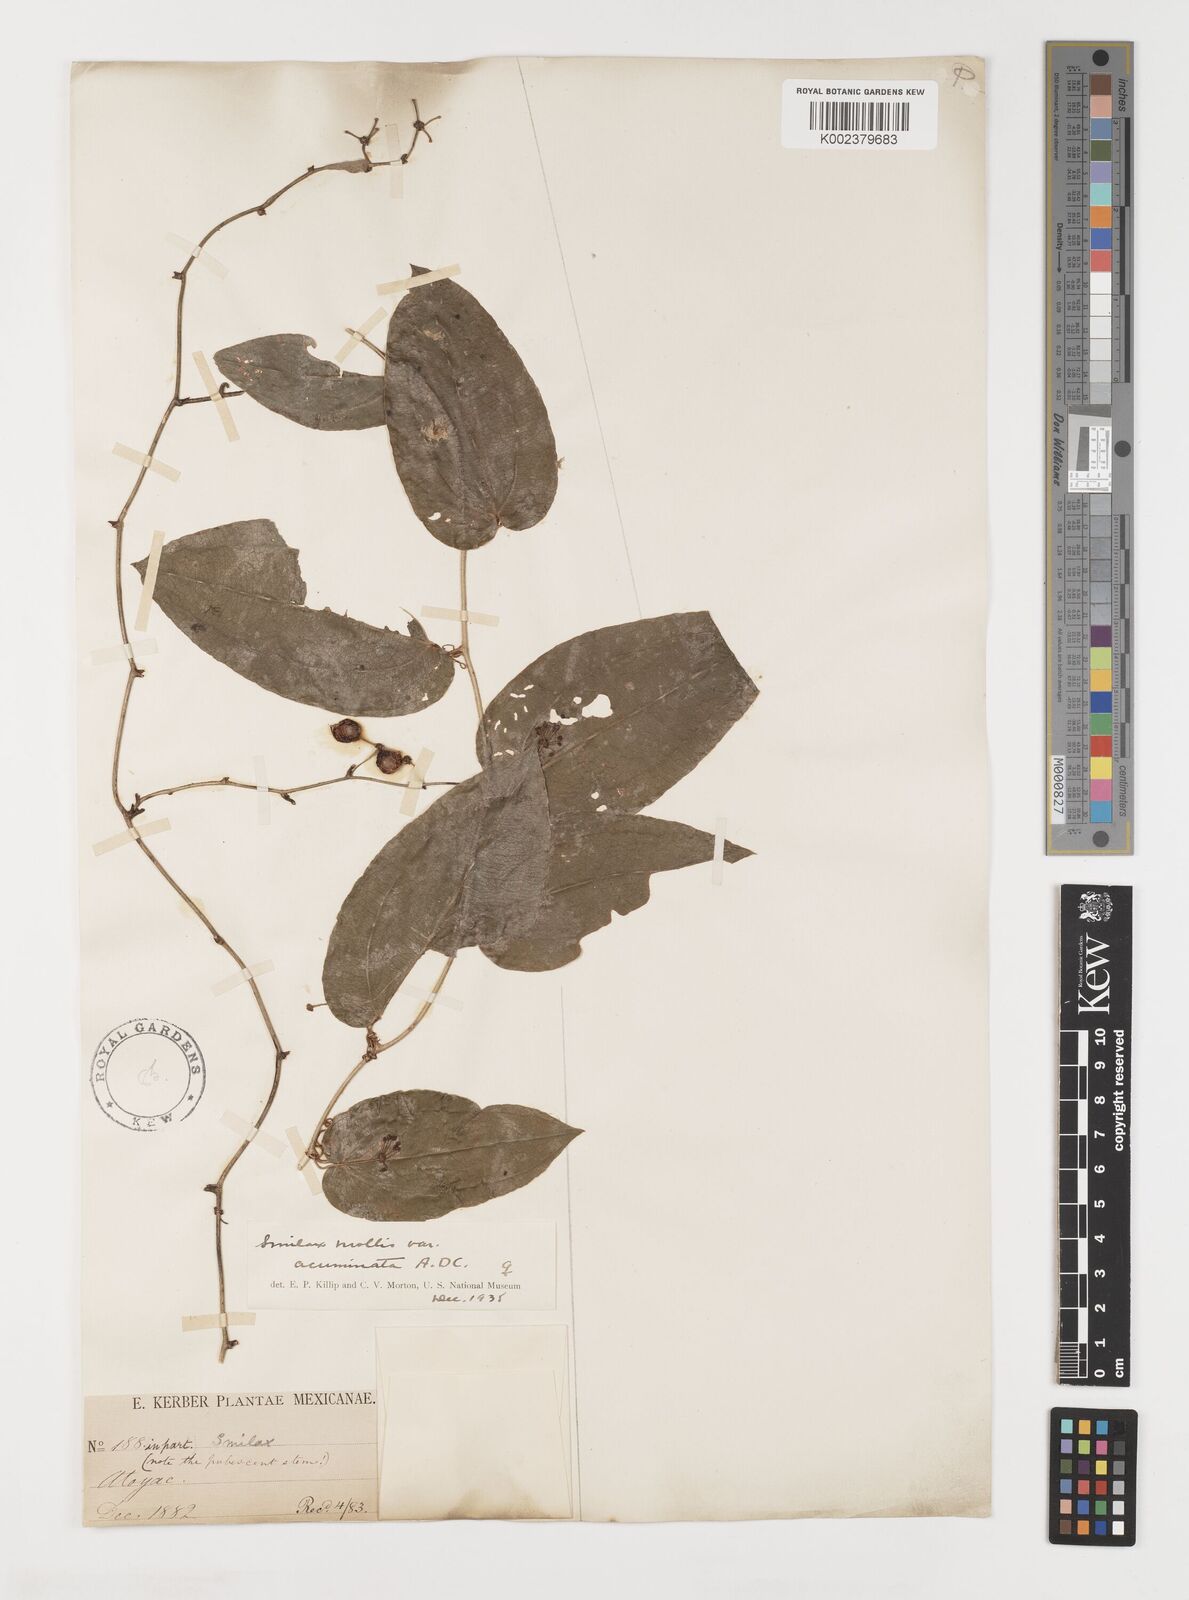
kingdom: Plantae
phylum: Tracheophyta
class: Liliopsida
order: Liliales
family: Smilacaceae
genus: Smilax
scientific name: Smilax mollis
